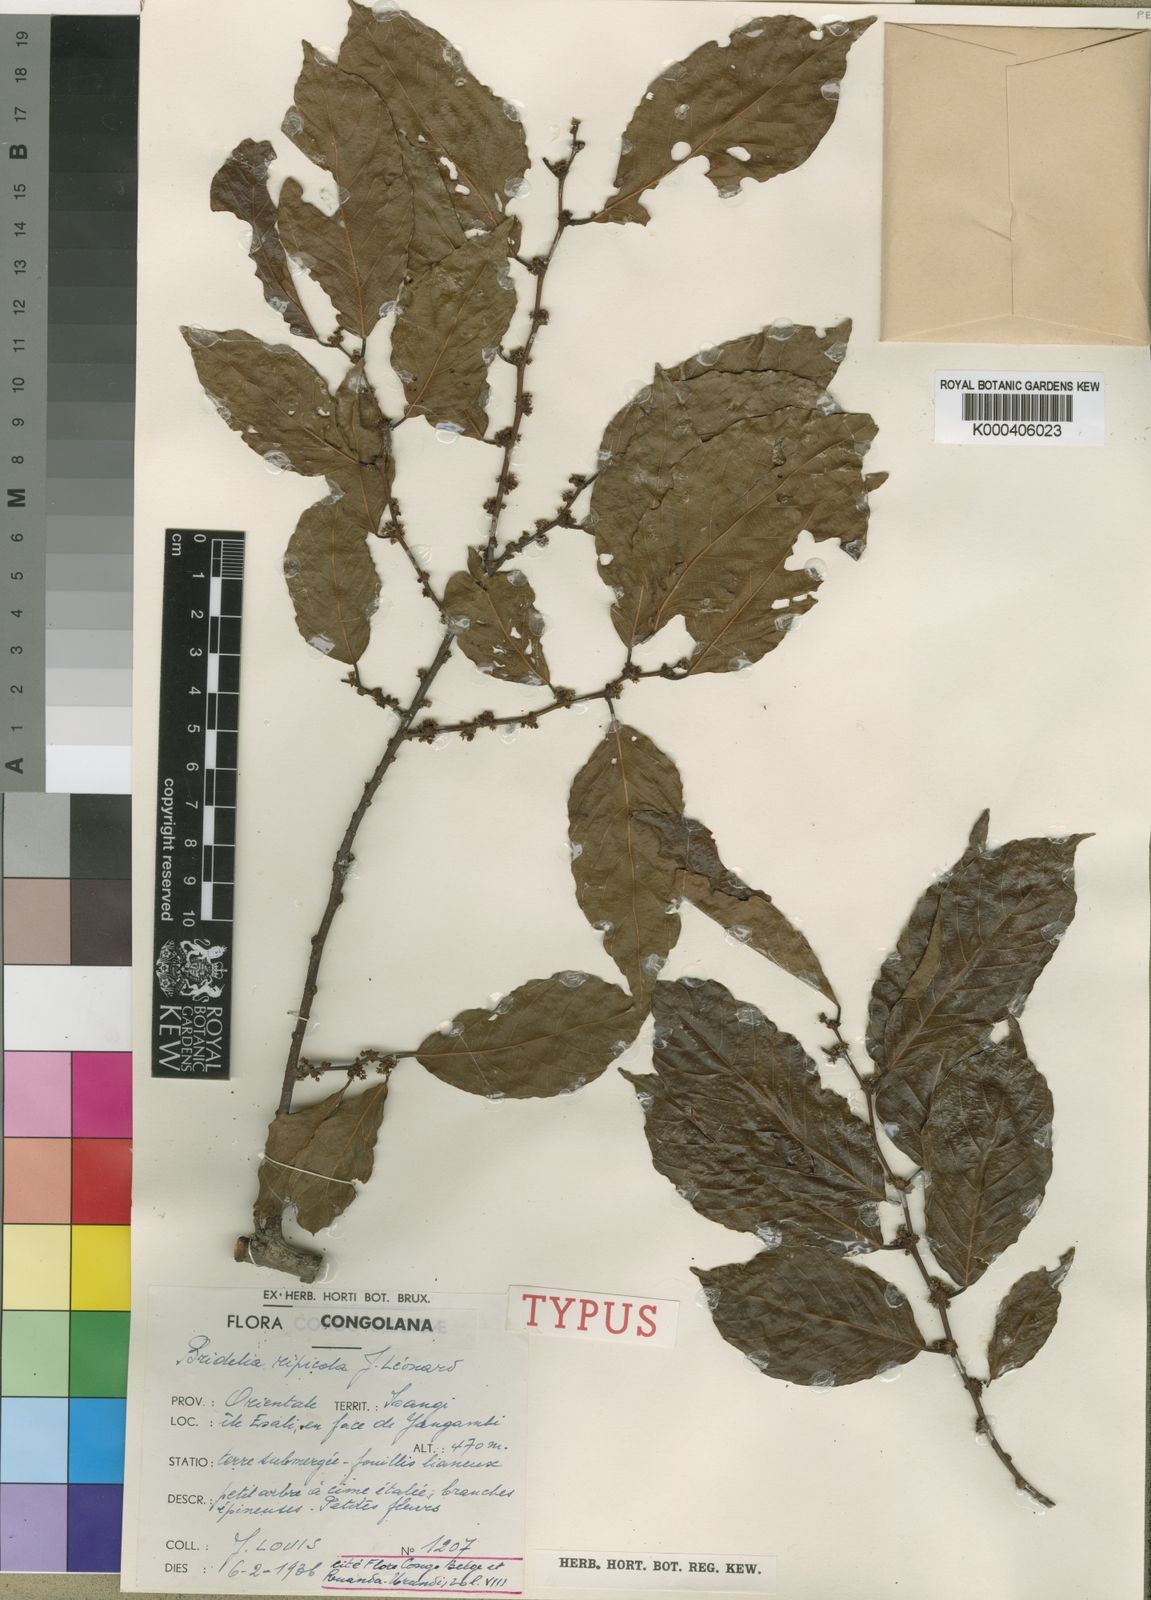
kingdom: Plantae
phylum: Tracheophyta
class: Magnoliopsida
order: Malpighiales
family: Phyllanthaceae
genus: Bridelia
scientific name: Bridelia
